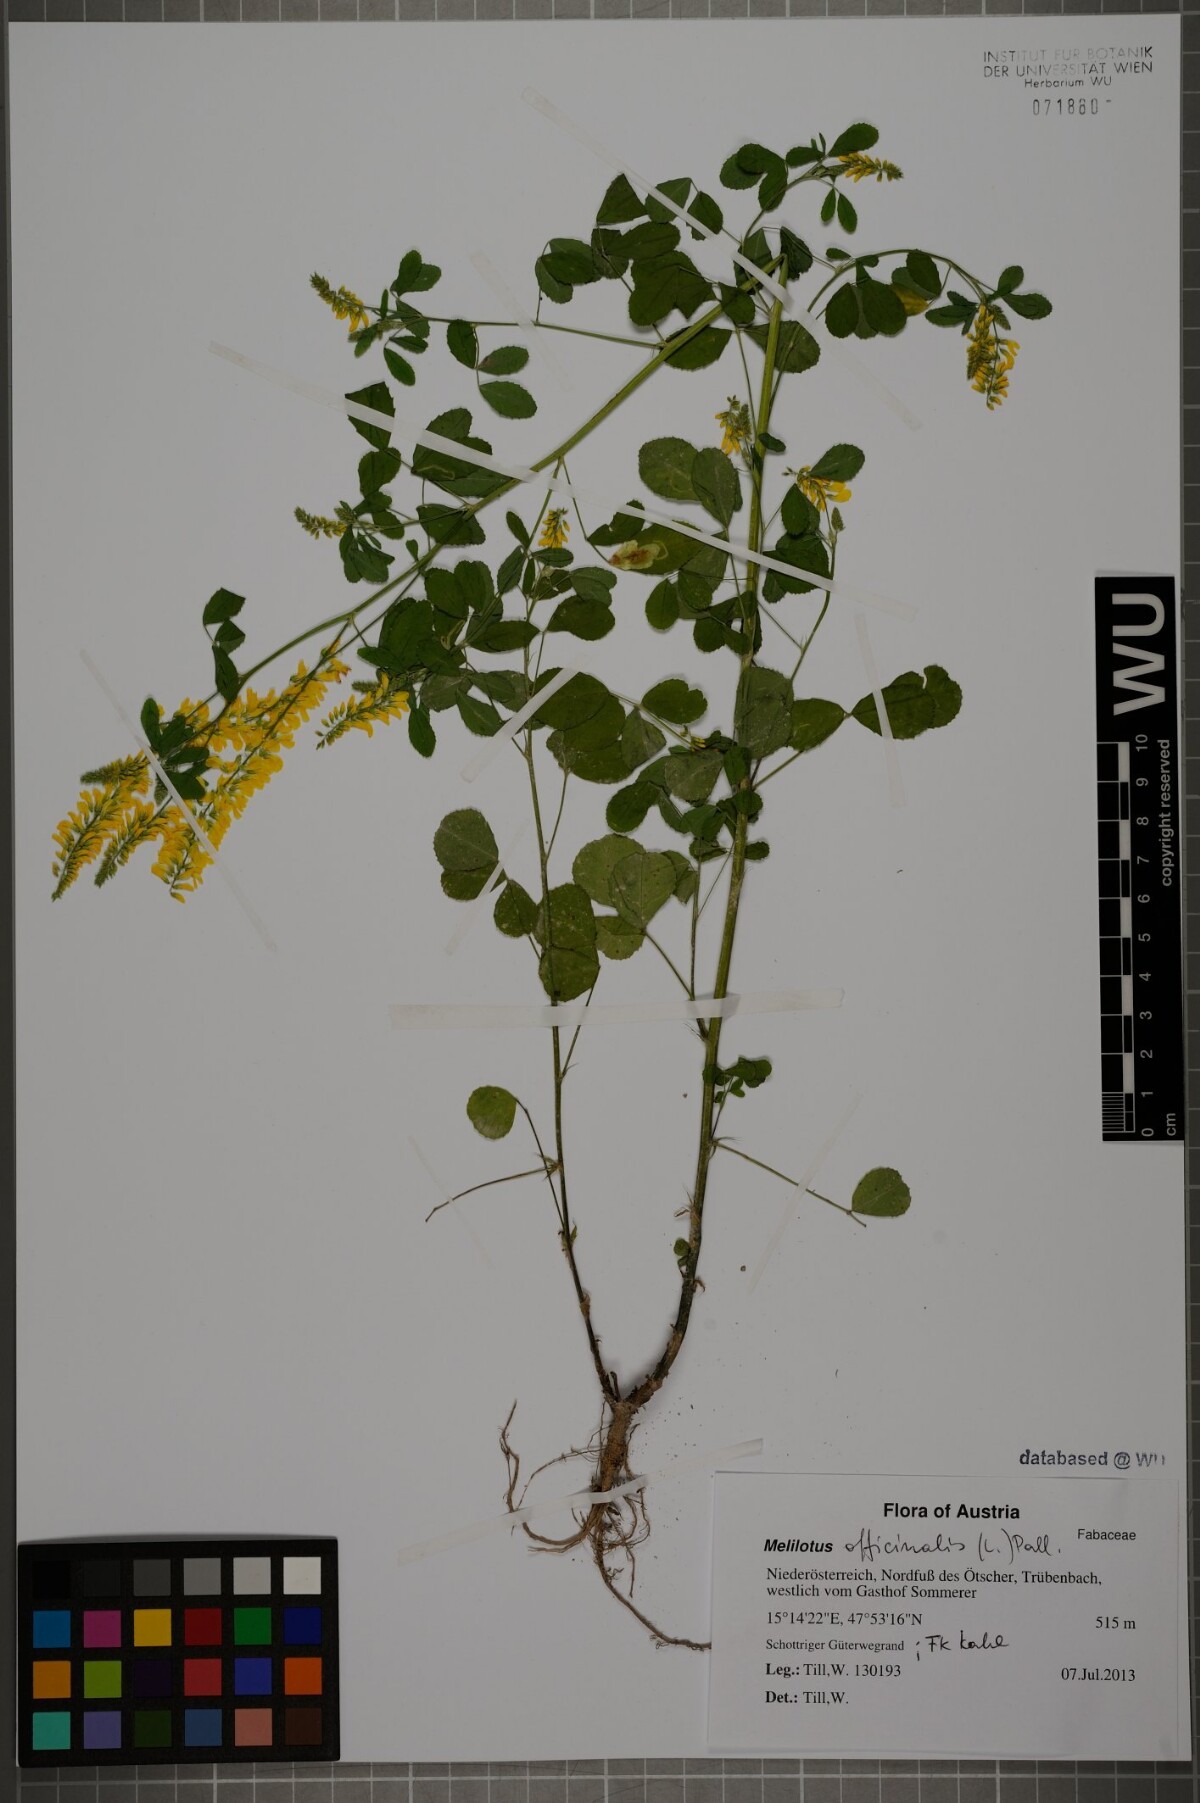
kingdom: Plantae
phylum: Tracheophyta
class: Magnoliopsida
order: Fabales
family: Fabaceae
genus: Melilotus
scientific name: Melilotus officinalis
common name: Sweetclover
